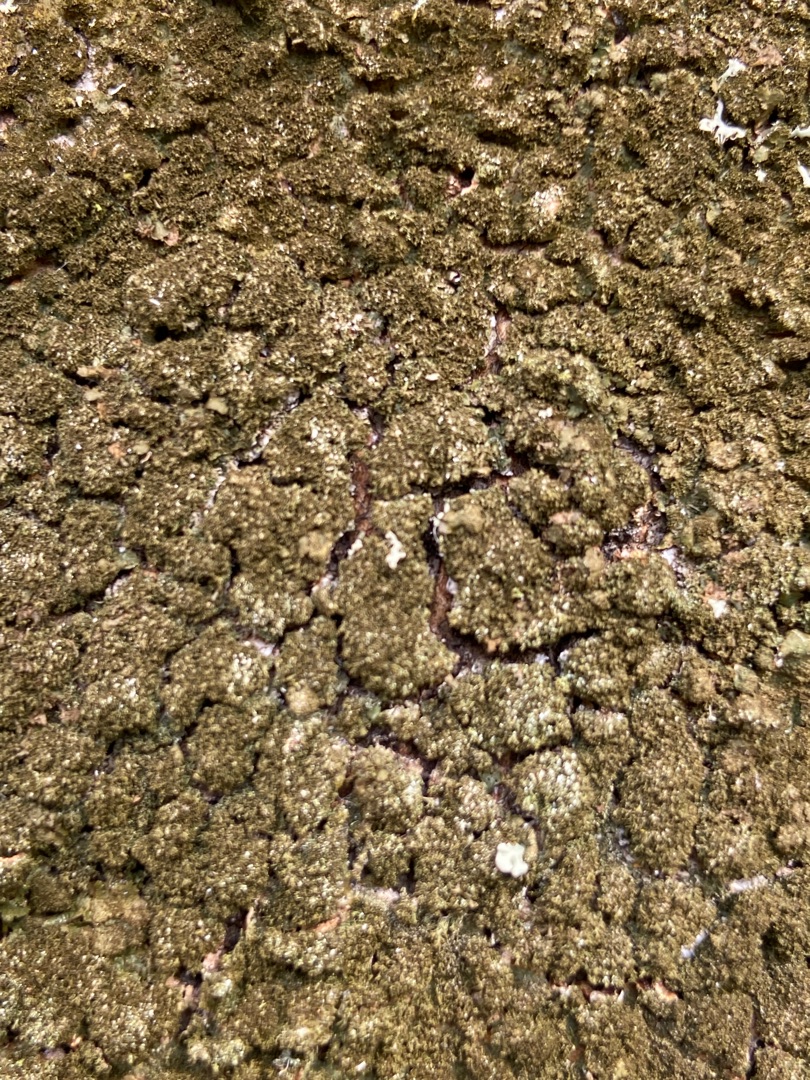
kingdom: Fungi
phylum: Ascomycota
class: Lecanoromycetes
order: Lecanorales
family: Parmeliaceae
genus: Melanelixia
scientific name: Melanelixia glabratula
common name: Glinsende skållav
